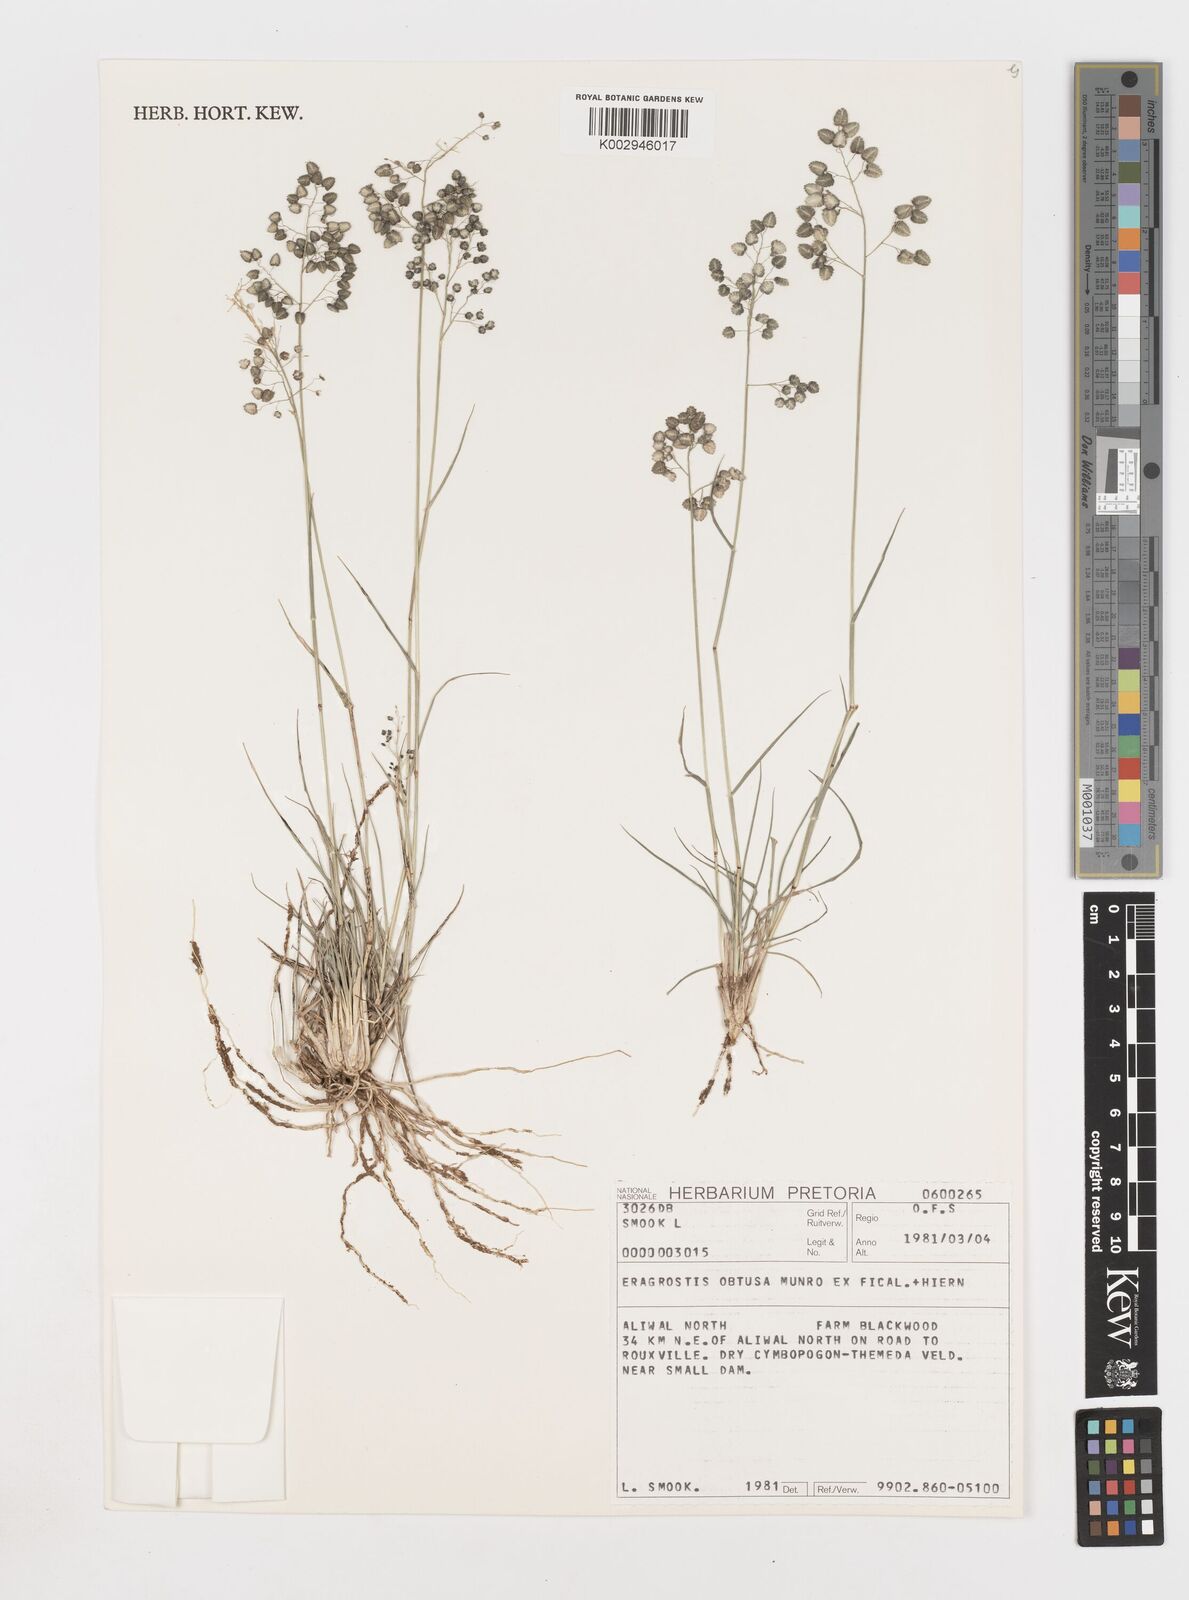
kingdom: Plantae
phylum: Tracheophyta
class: Liliopsida
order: Poales
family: Poaceae
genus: Eragrostis
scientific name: Eragrostis obtusa
